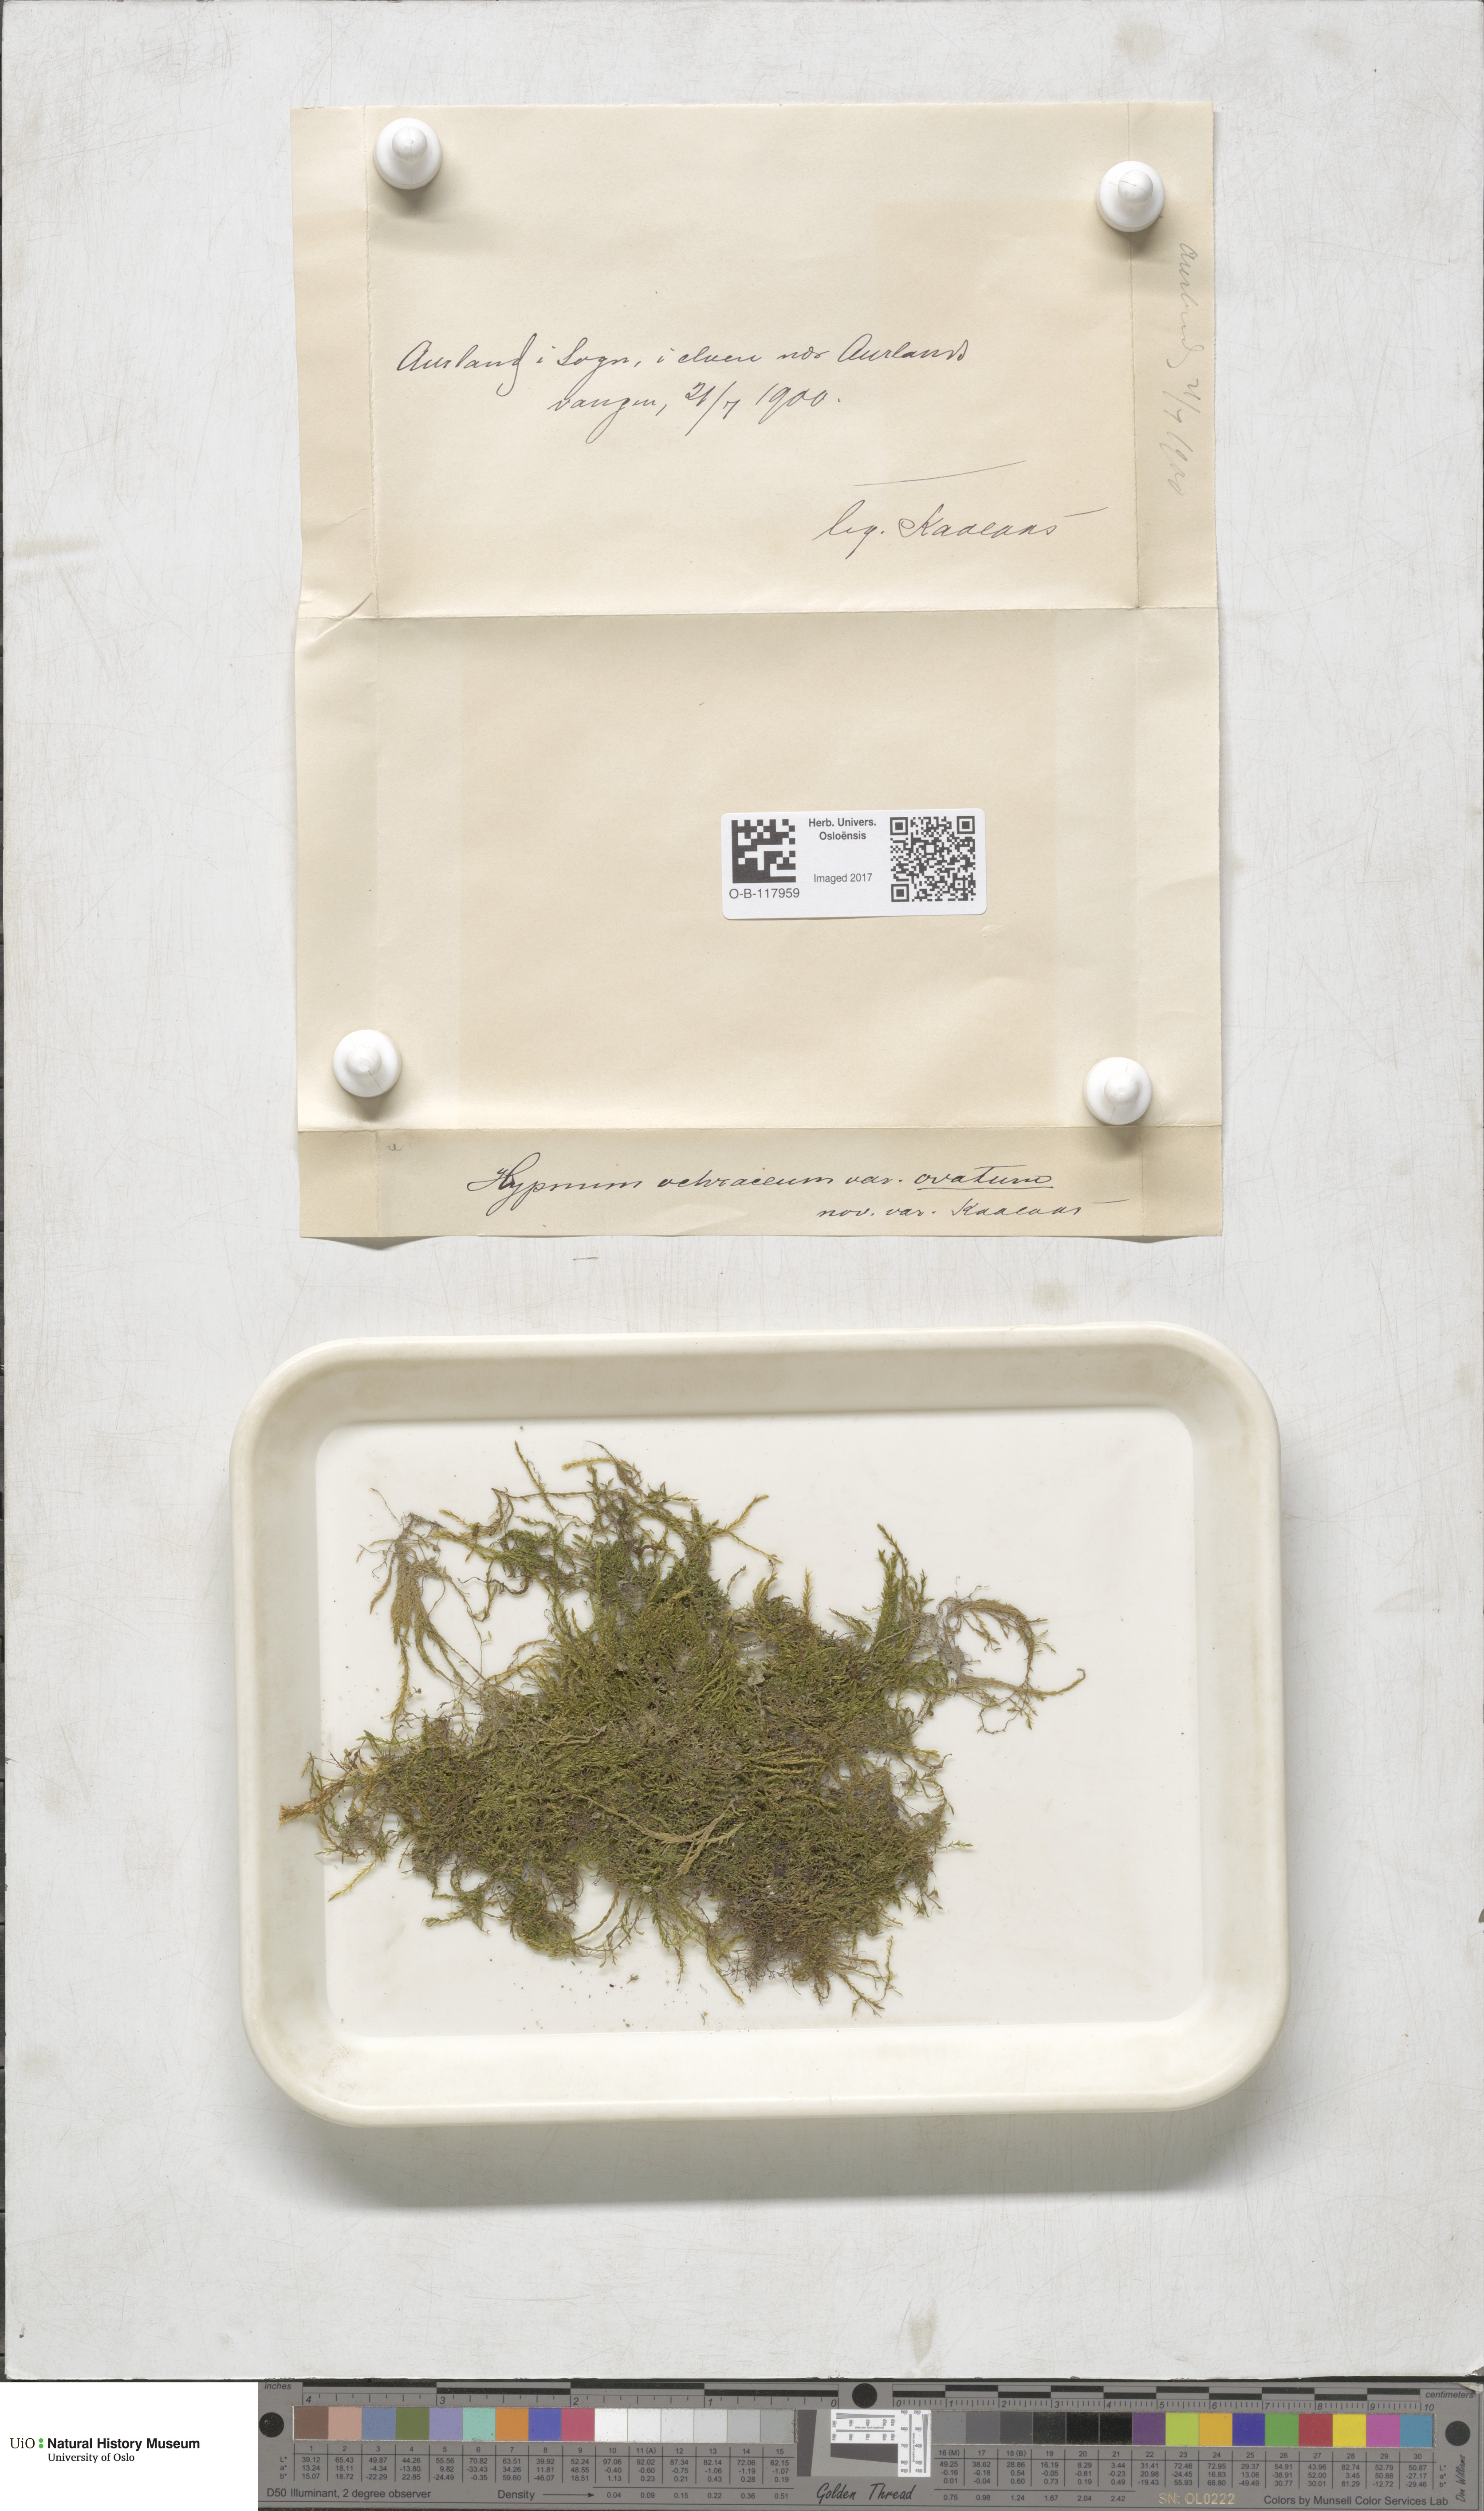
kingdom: Plantae
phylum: Bryophyta
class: Bryopsida
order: Hypnales
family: Scorpidiaceae
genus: Hygrohypnella
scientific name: Hygrohypnella ochracea
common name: Hygrohypnum moss
